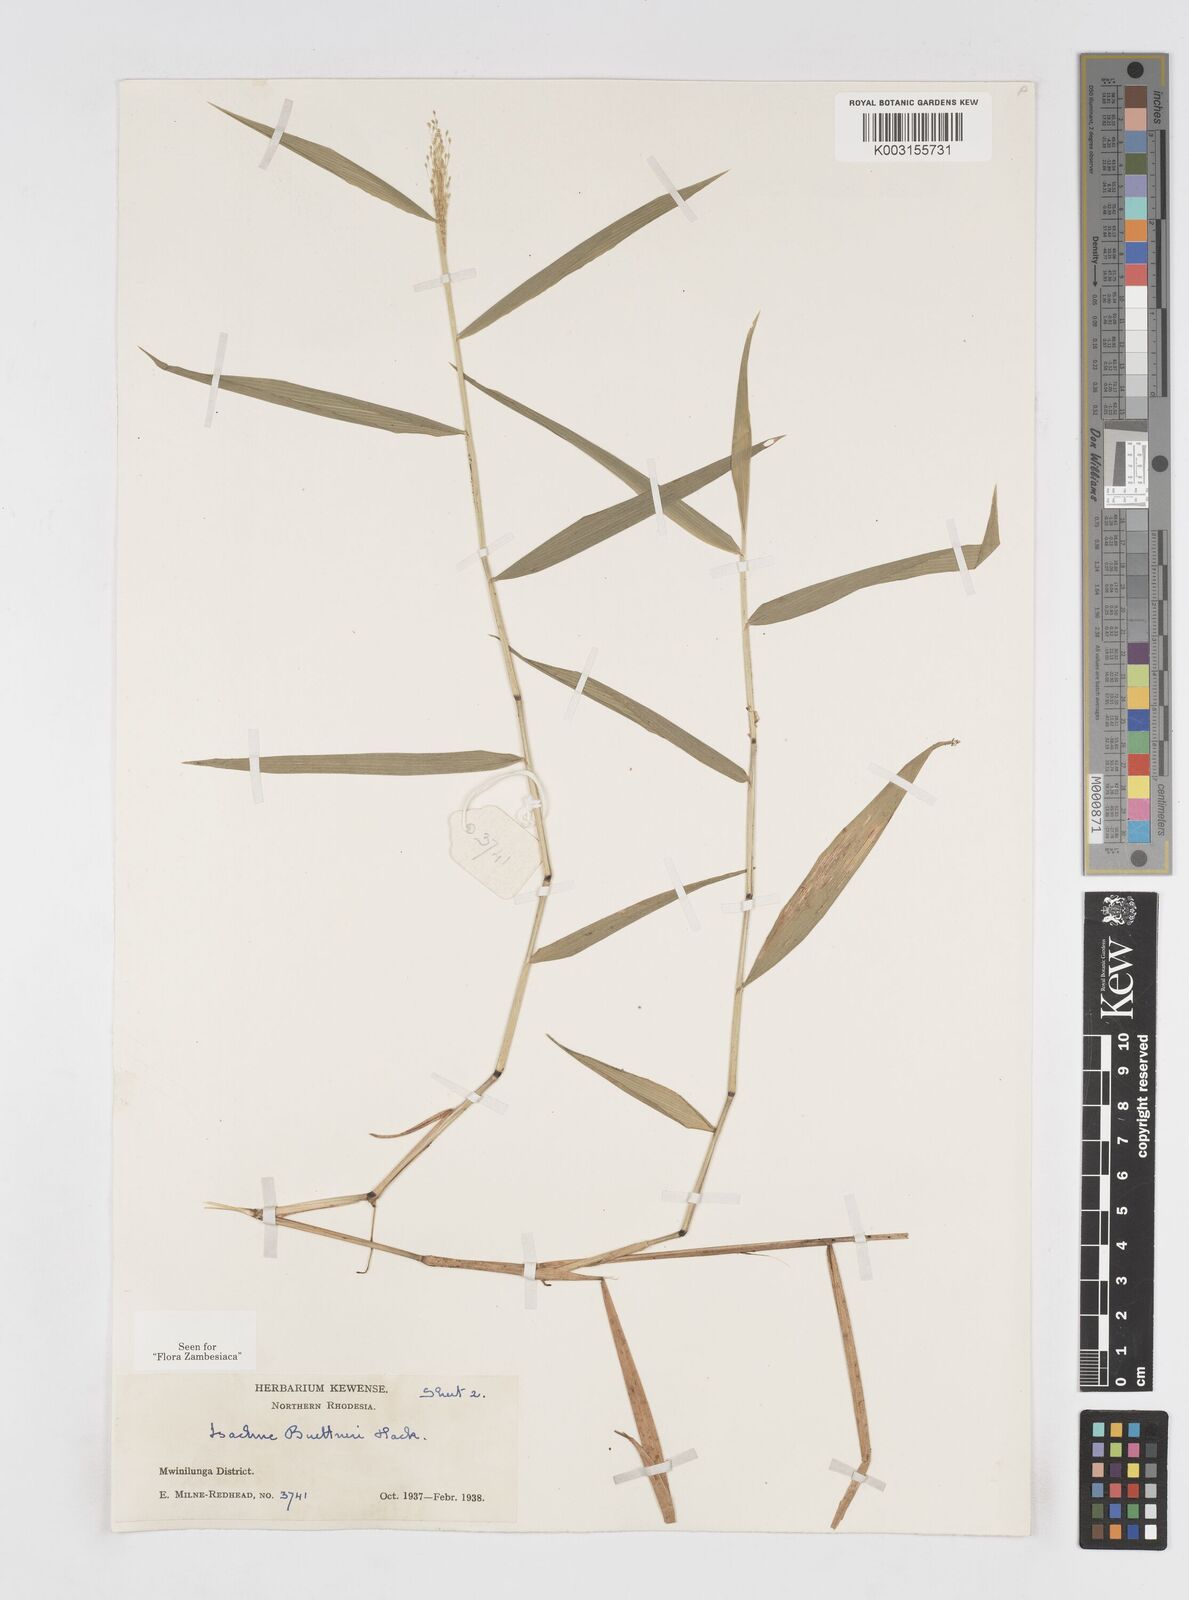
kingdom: Plantae
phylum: Tracheophyta
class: Liliopsida
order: Poales
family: Poaceae
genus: Isachne
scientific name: Isachne albens
